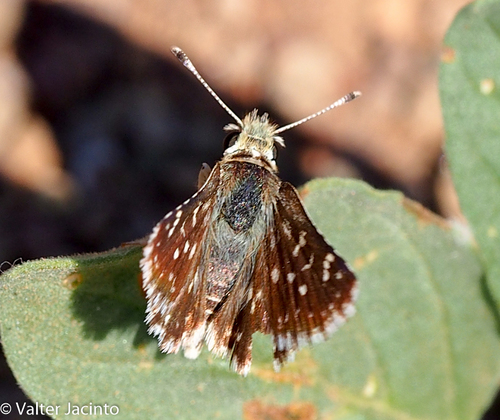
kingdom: Animalia
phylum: Arthropoda
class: Insecta
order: Lepidoptera
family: Hesperiidae
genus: Spialia
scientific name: Spialia sertorius
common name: Red underwing skipper
